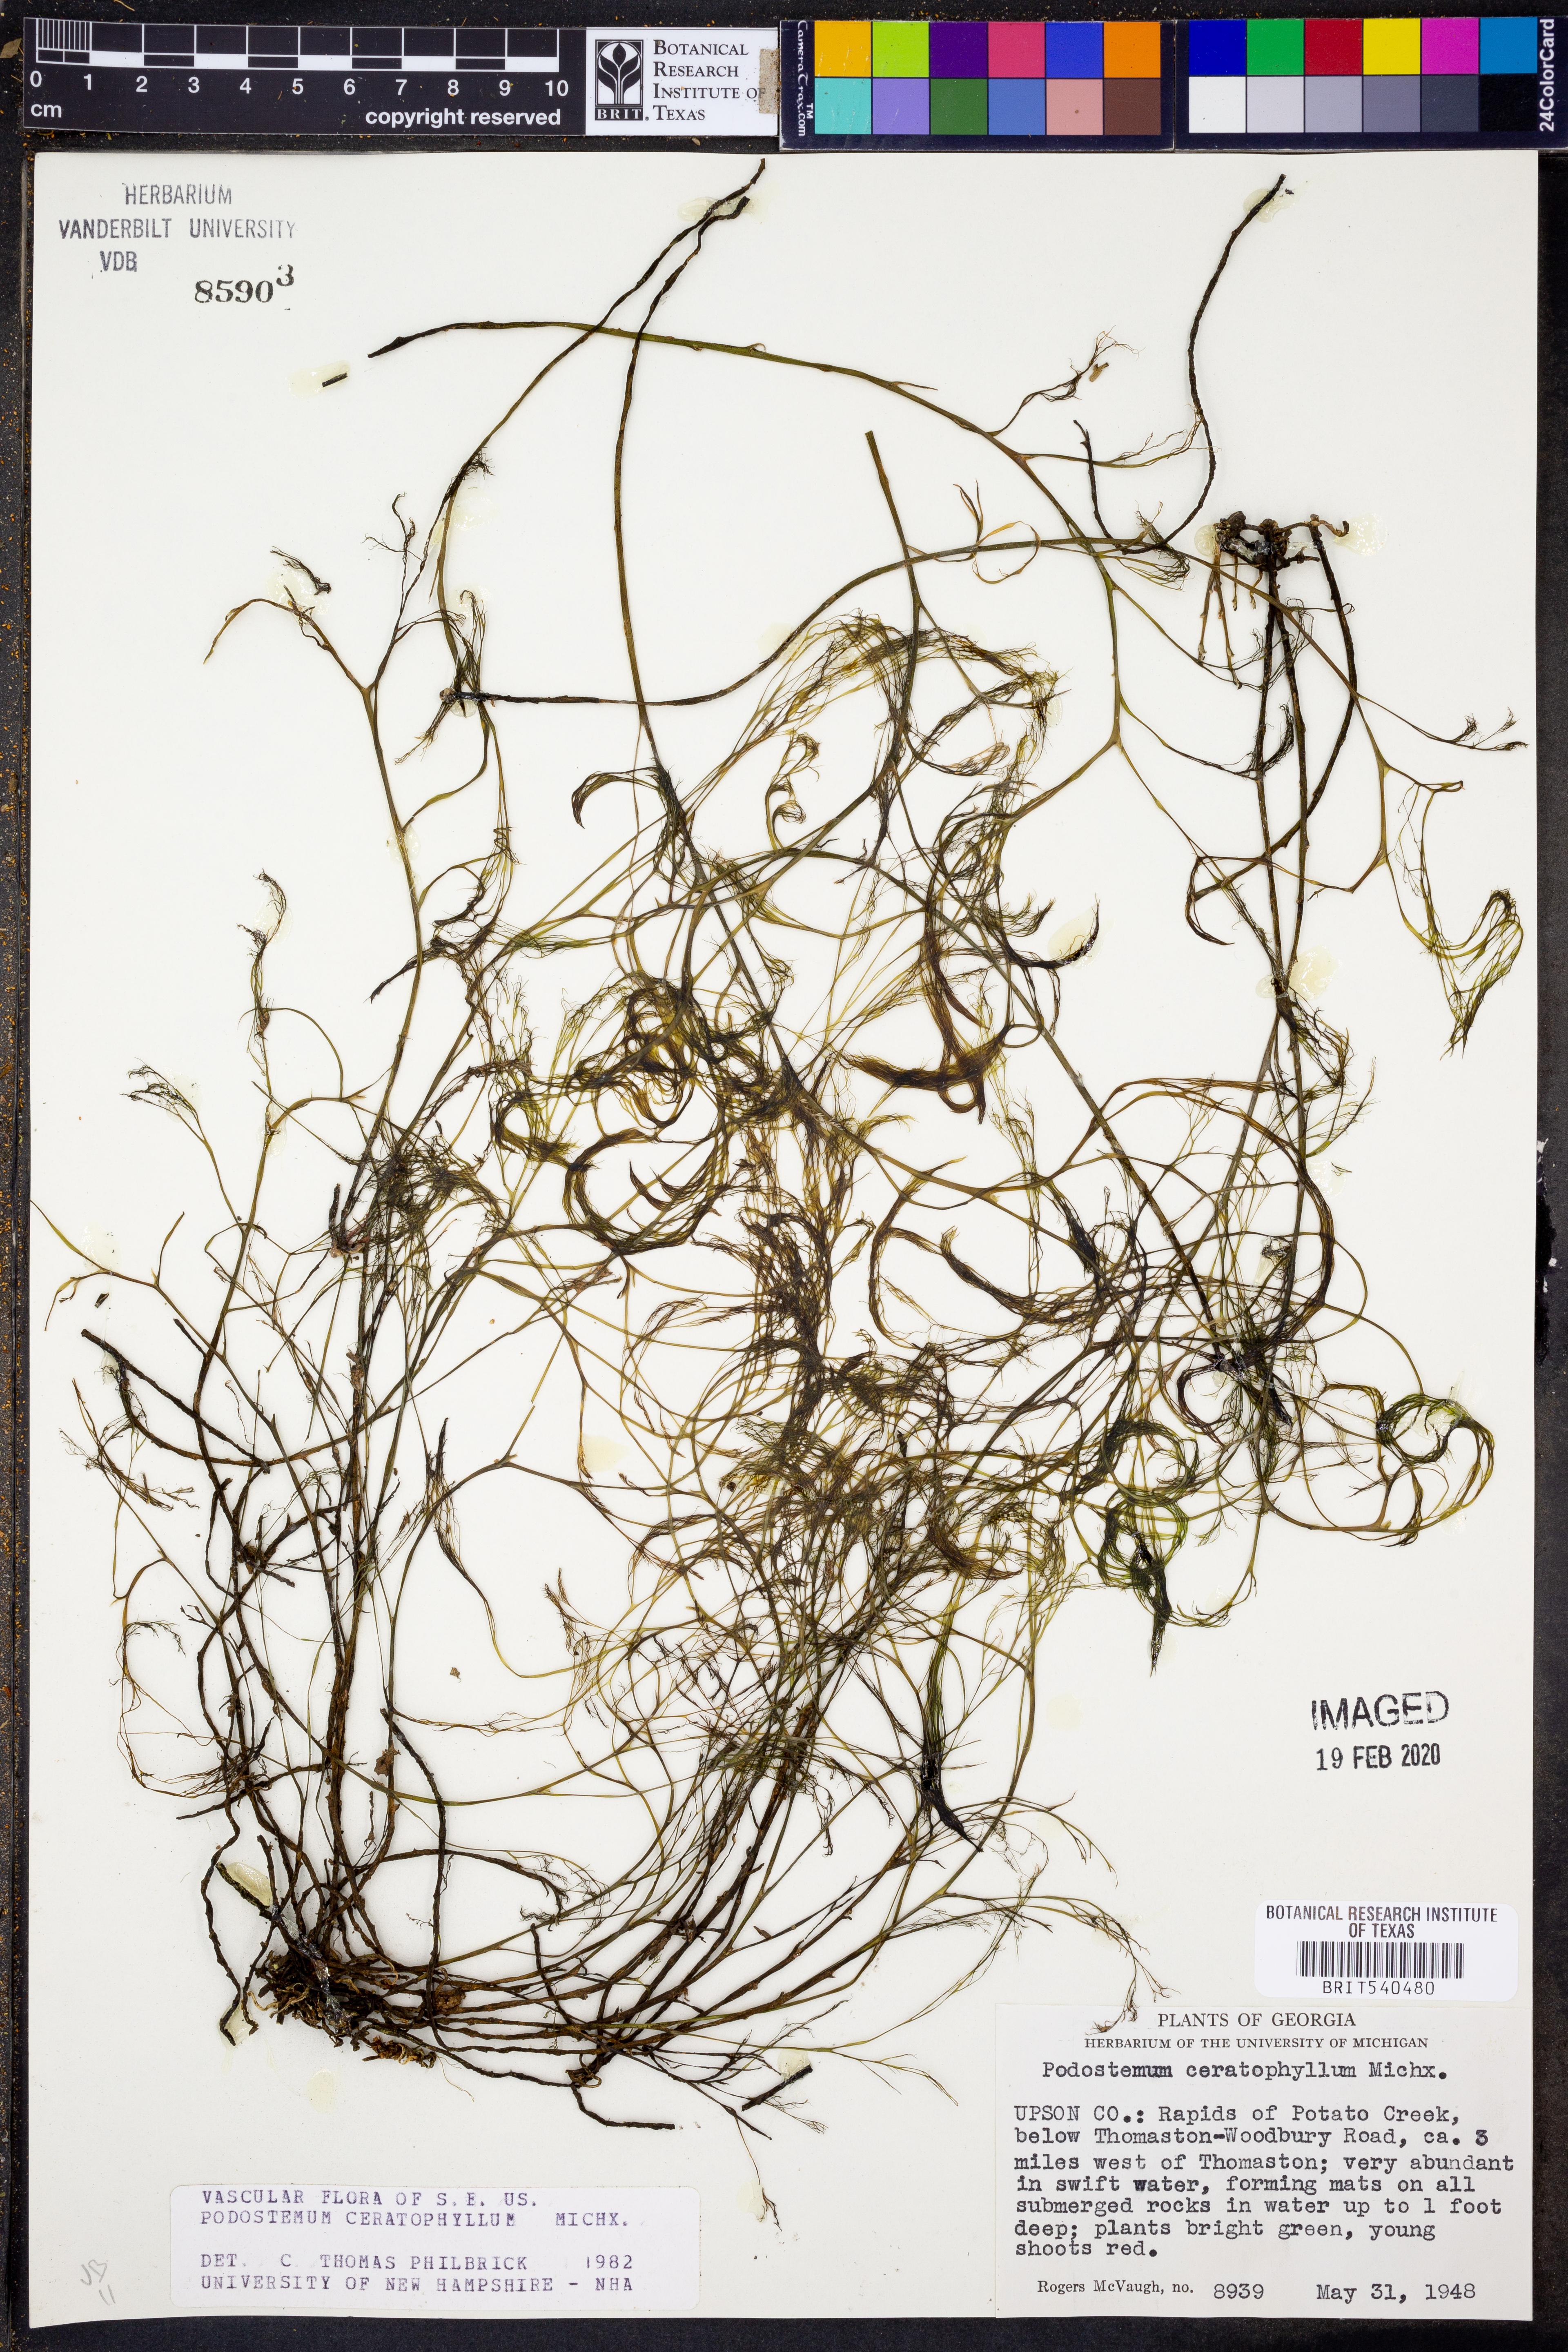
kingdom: Plantae
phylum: Tracheophyta
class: Magnoliopsida
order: Malpighiales
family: Podostemaceae
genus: Podostemum
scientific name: Podostemum ceratophyllum
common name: Horn-leaved riverweed
